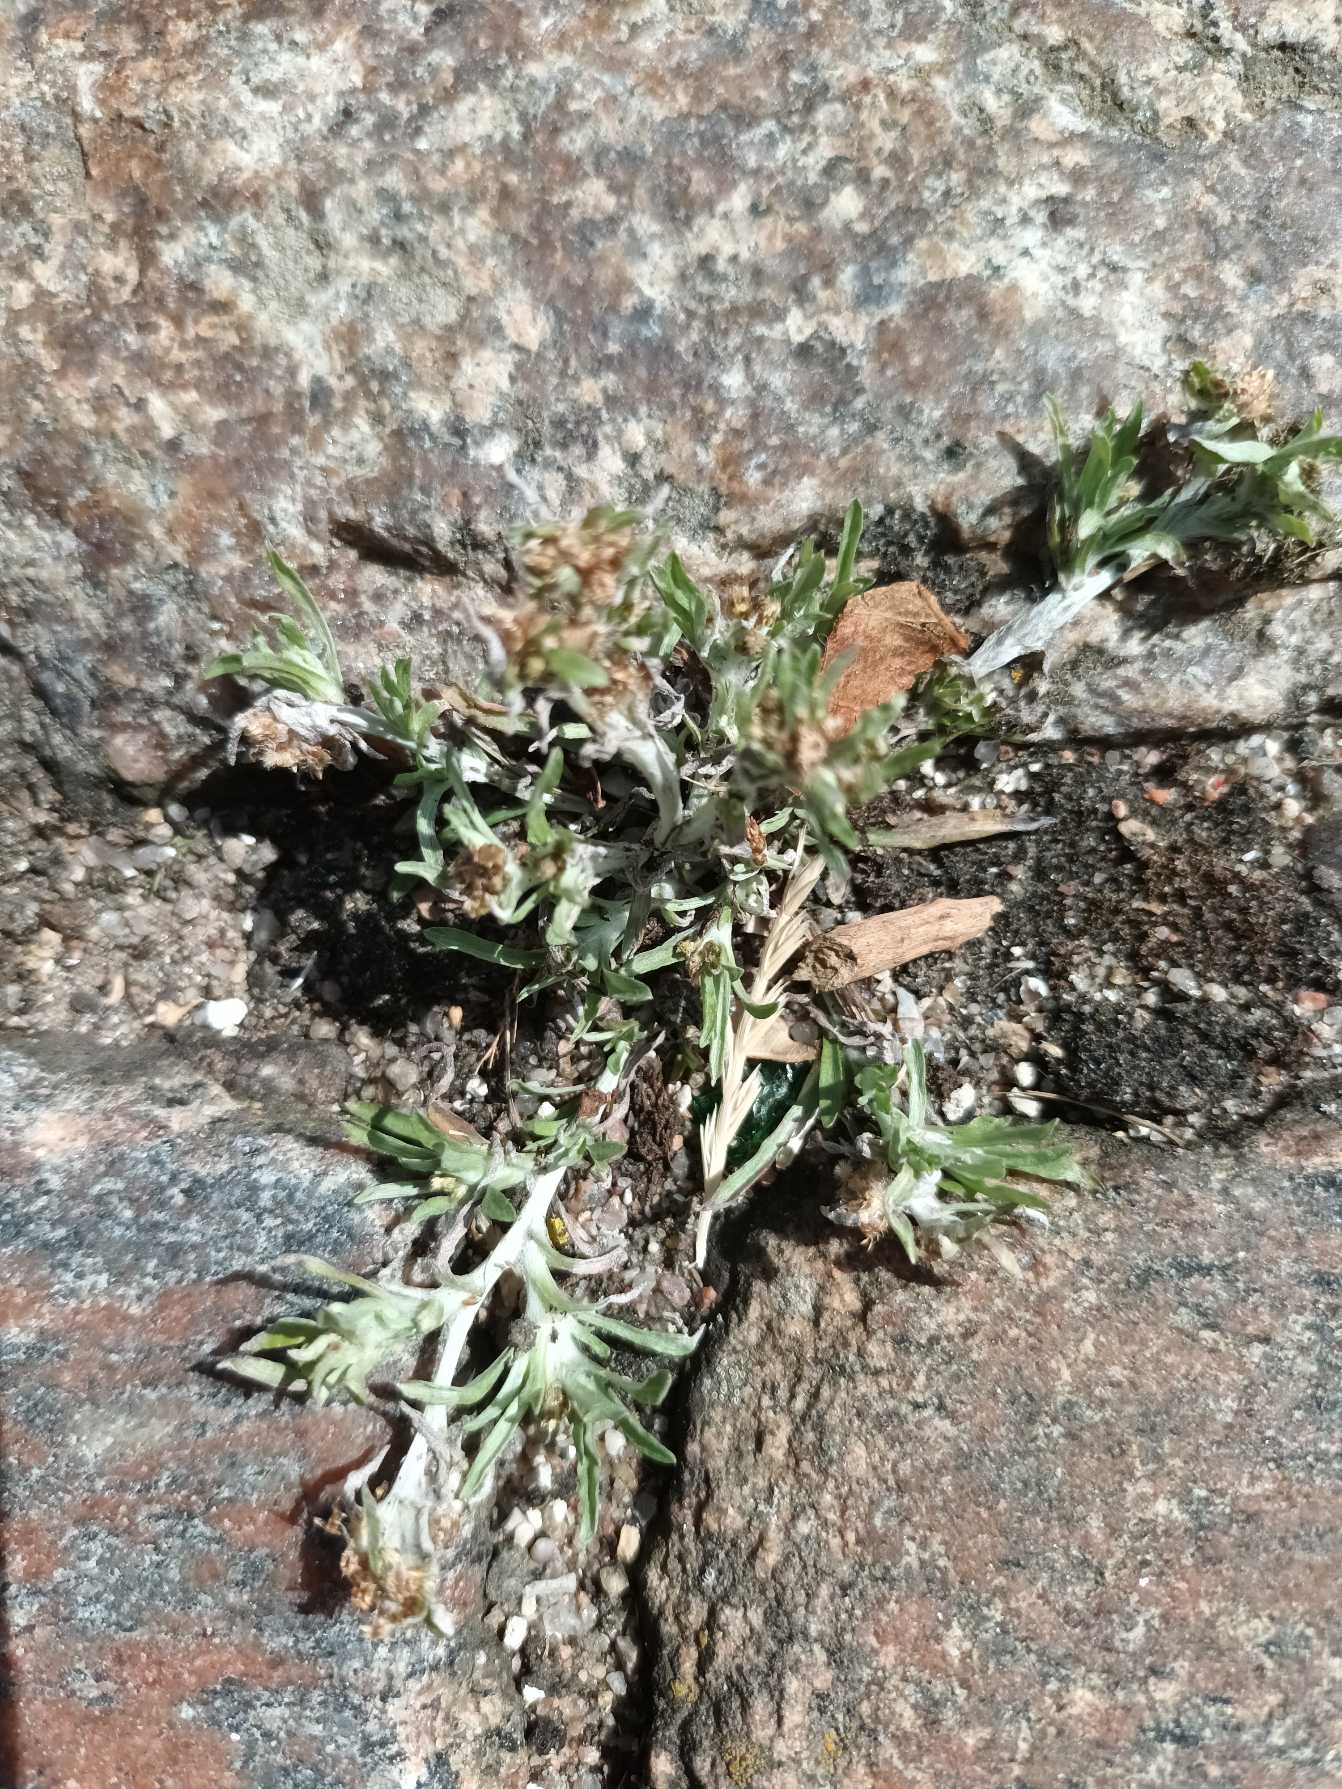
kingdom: Plantae
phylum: Tracheophyta
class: Magnoliopsida
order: Asterales
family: Asteraceae
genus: Gnaphalium
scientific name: Gnaphalium uliginosum
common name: Sump-evighedsblomst
